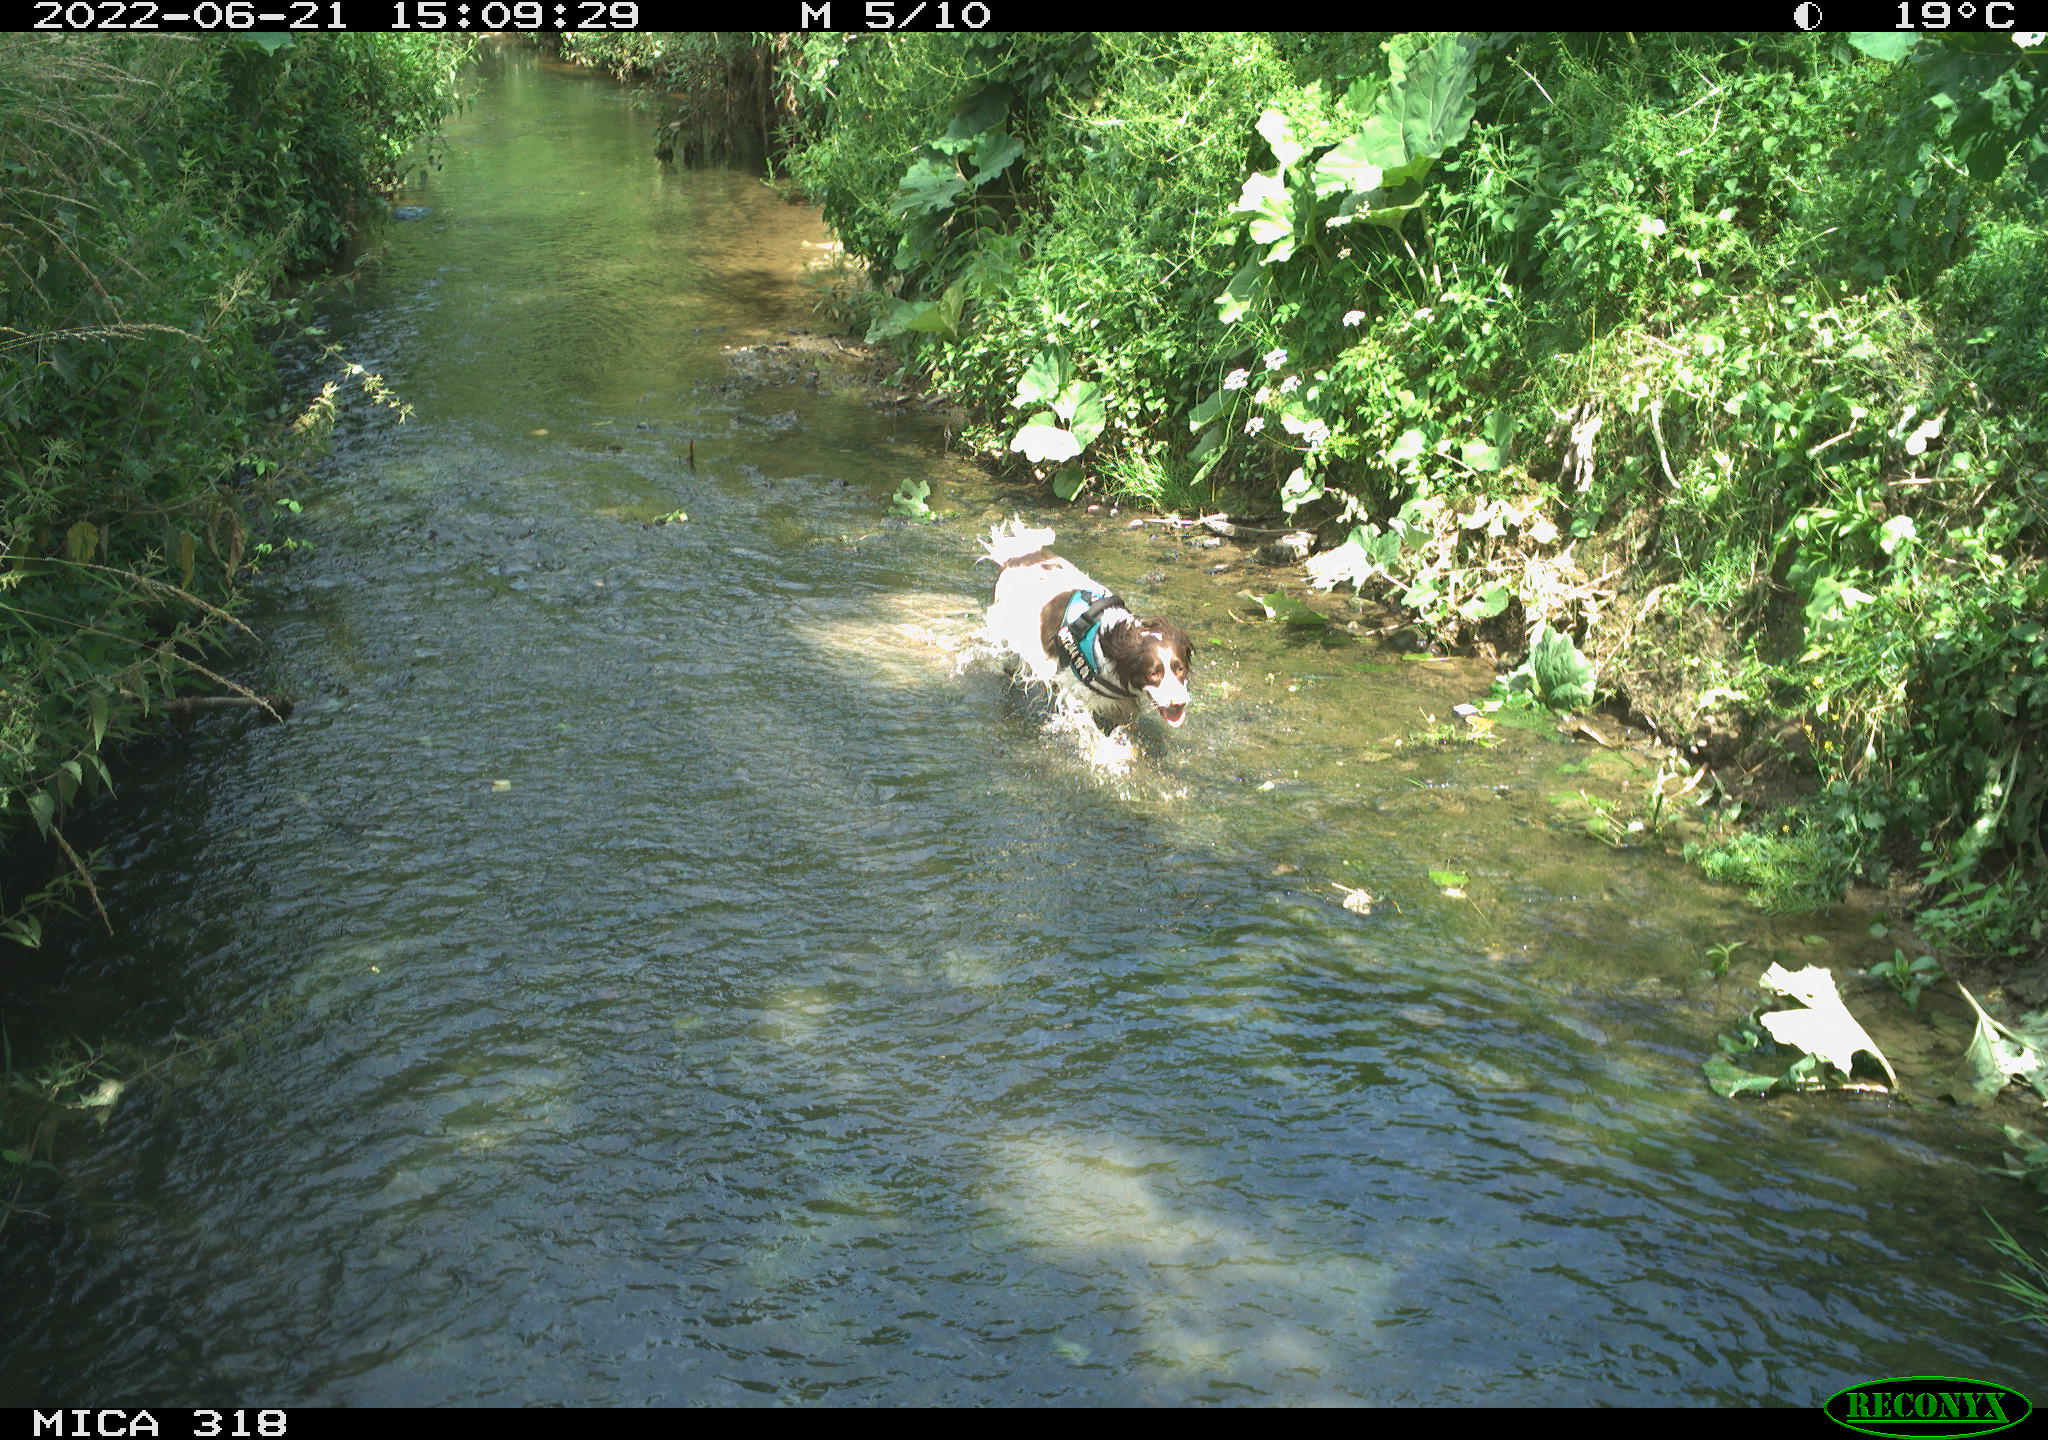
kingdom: Animalia
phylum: Chordata
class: Mammalia
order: Carnivora
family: Canidae
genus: Canis
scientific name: Canis lupus
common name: Gray wolf
